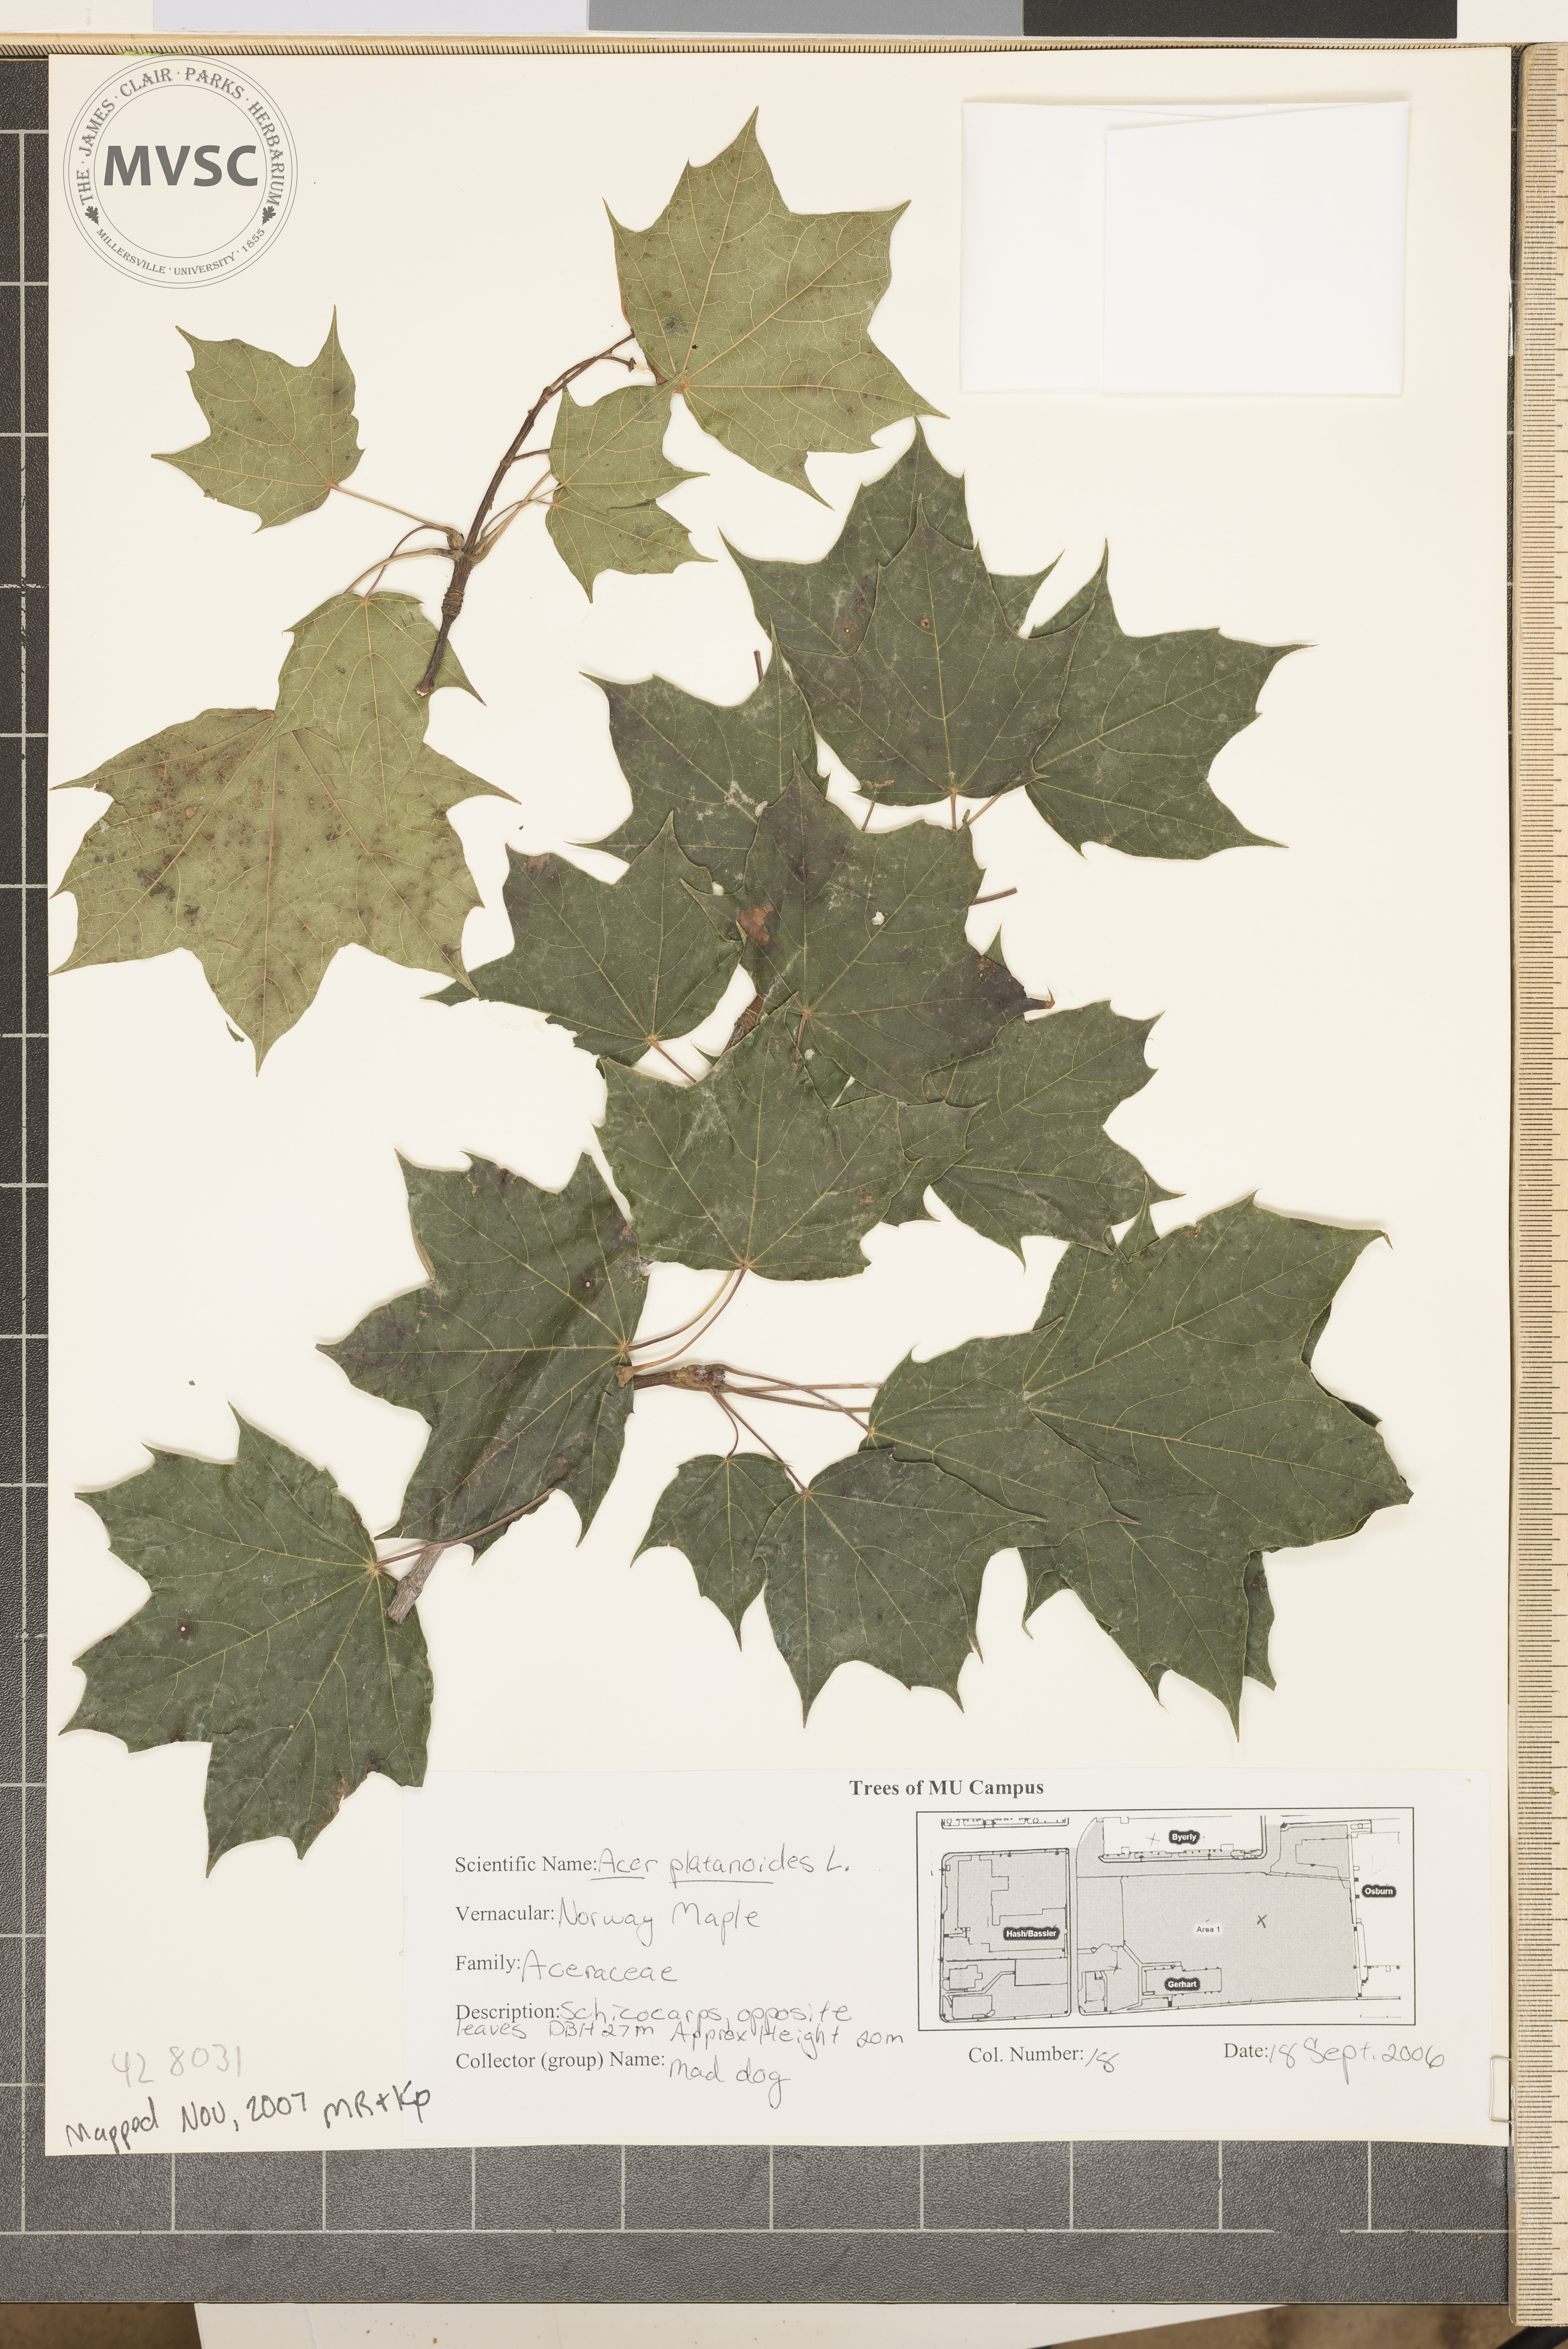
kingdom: Plantae
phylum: Tracheophyta
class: Magnoliopsida
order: Sapindales
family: Sapindaceae
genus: Acer
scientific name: Acer platanoides
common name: Norway maple
